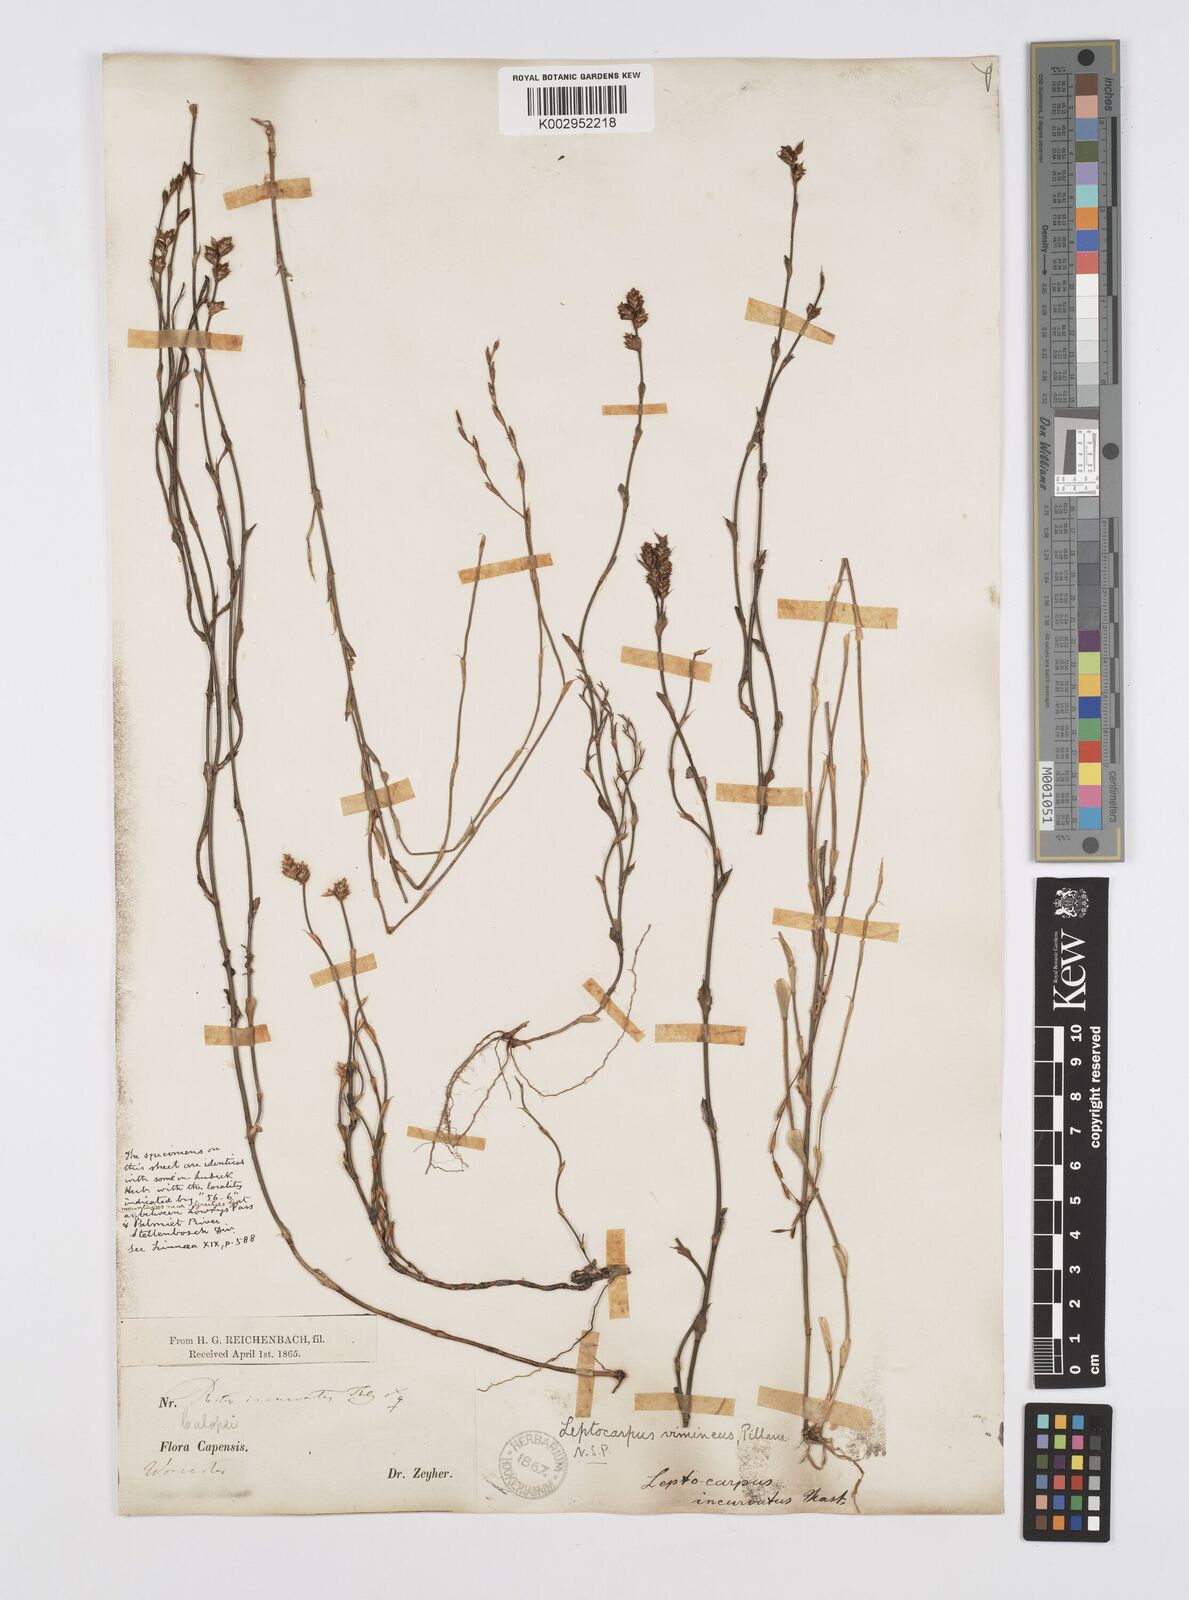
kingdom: Plantae
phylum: Tracheophyta
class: Liliopsida
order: Poales
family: Restionaceae
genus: Restio
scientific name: Restio vimineus
